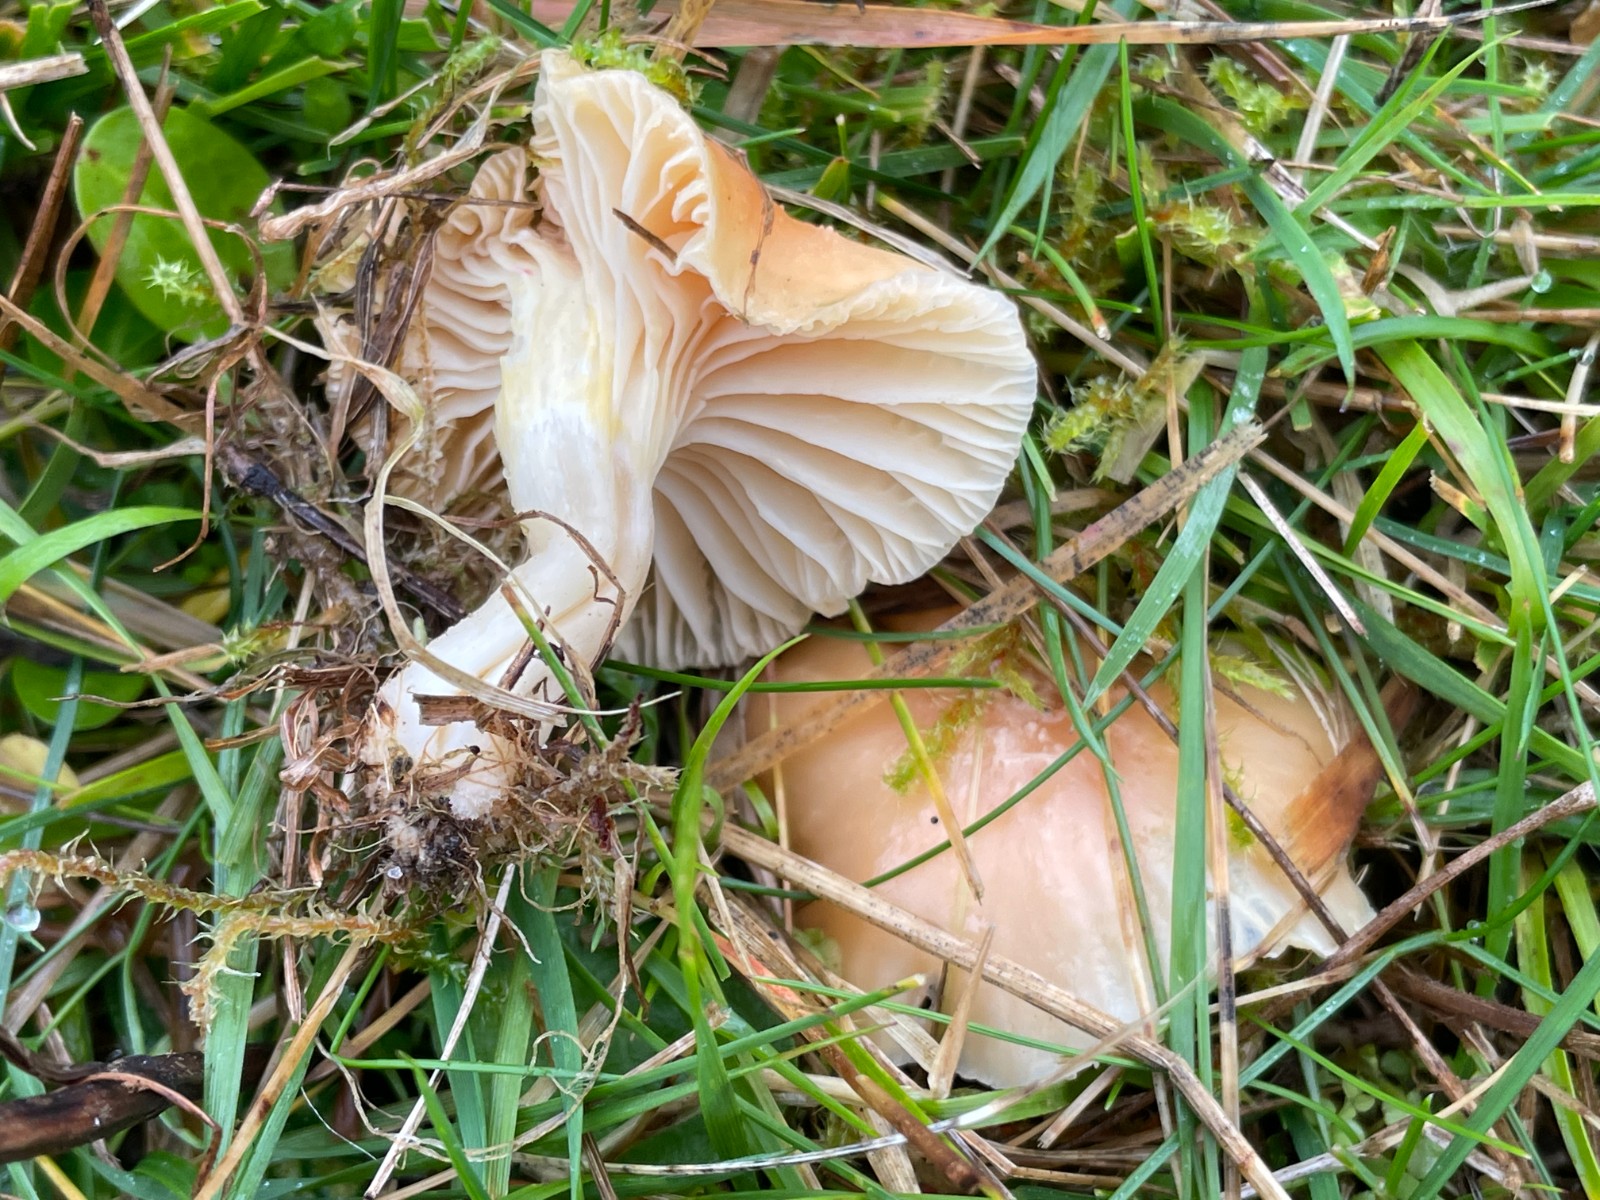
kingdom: Fungi
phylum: Basidiomycota
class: Agaricomycetes
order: Agaricales
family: Hygrophoraceae
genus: Cuphophyllus
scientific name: Cuphophyllus pratensis
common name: eng-vokshat
